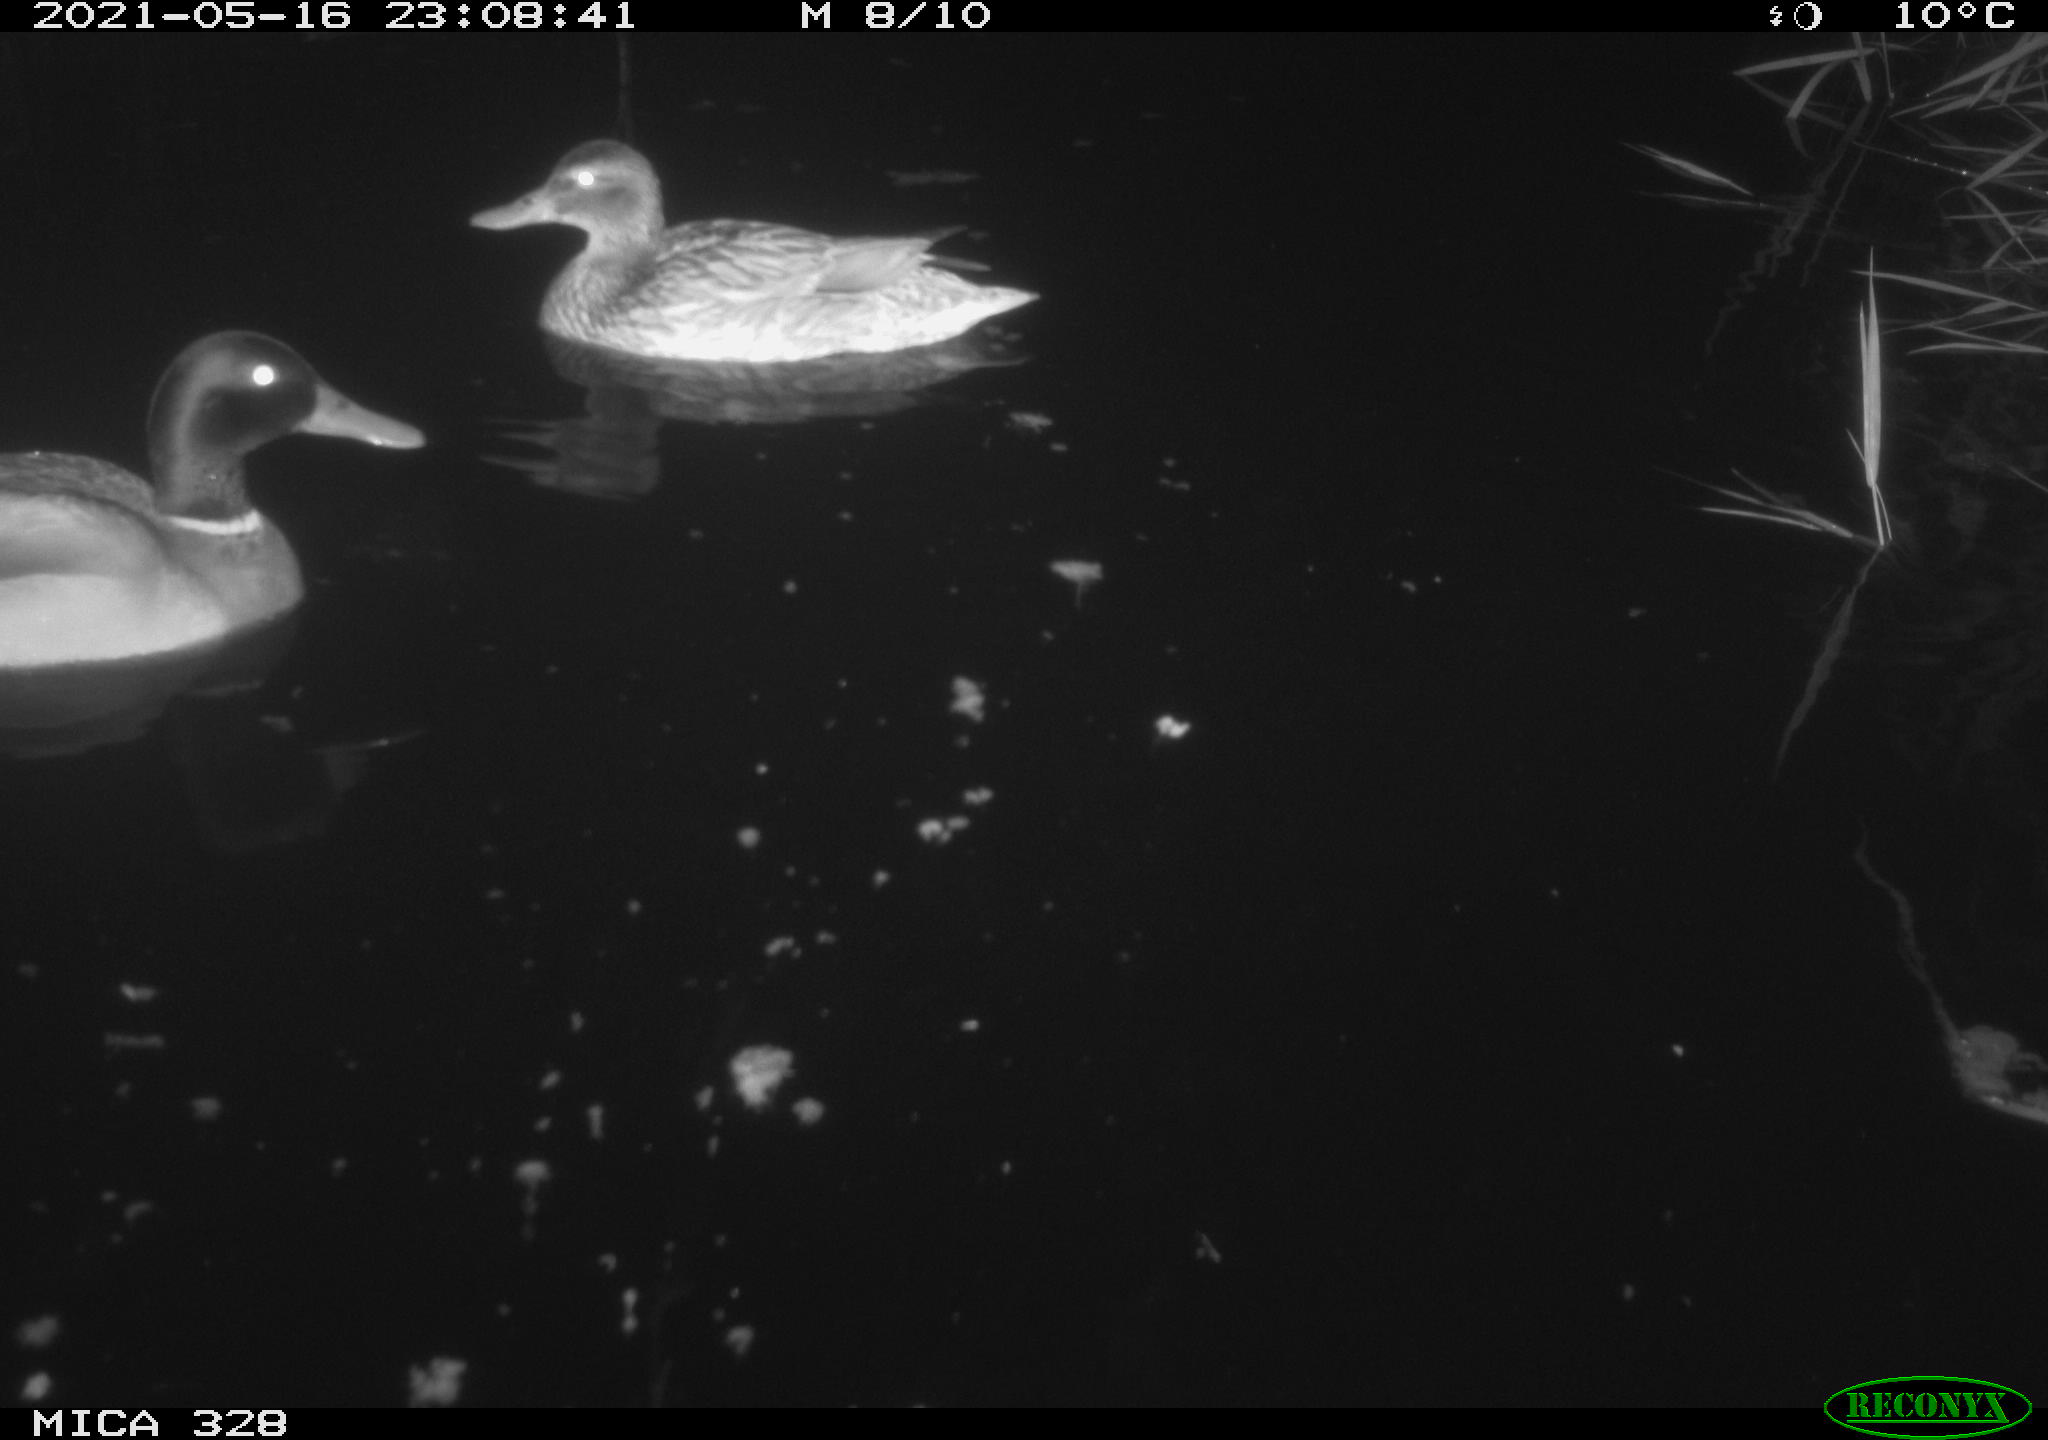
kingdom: Animalia
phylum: Chordata
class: Aves
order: Anseriformes
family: Anatidae
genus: Anas
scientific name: Anas platyrhynchos
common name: Mallard
